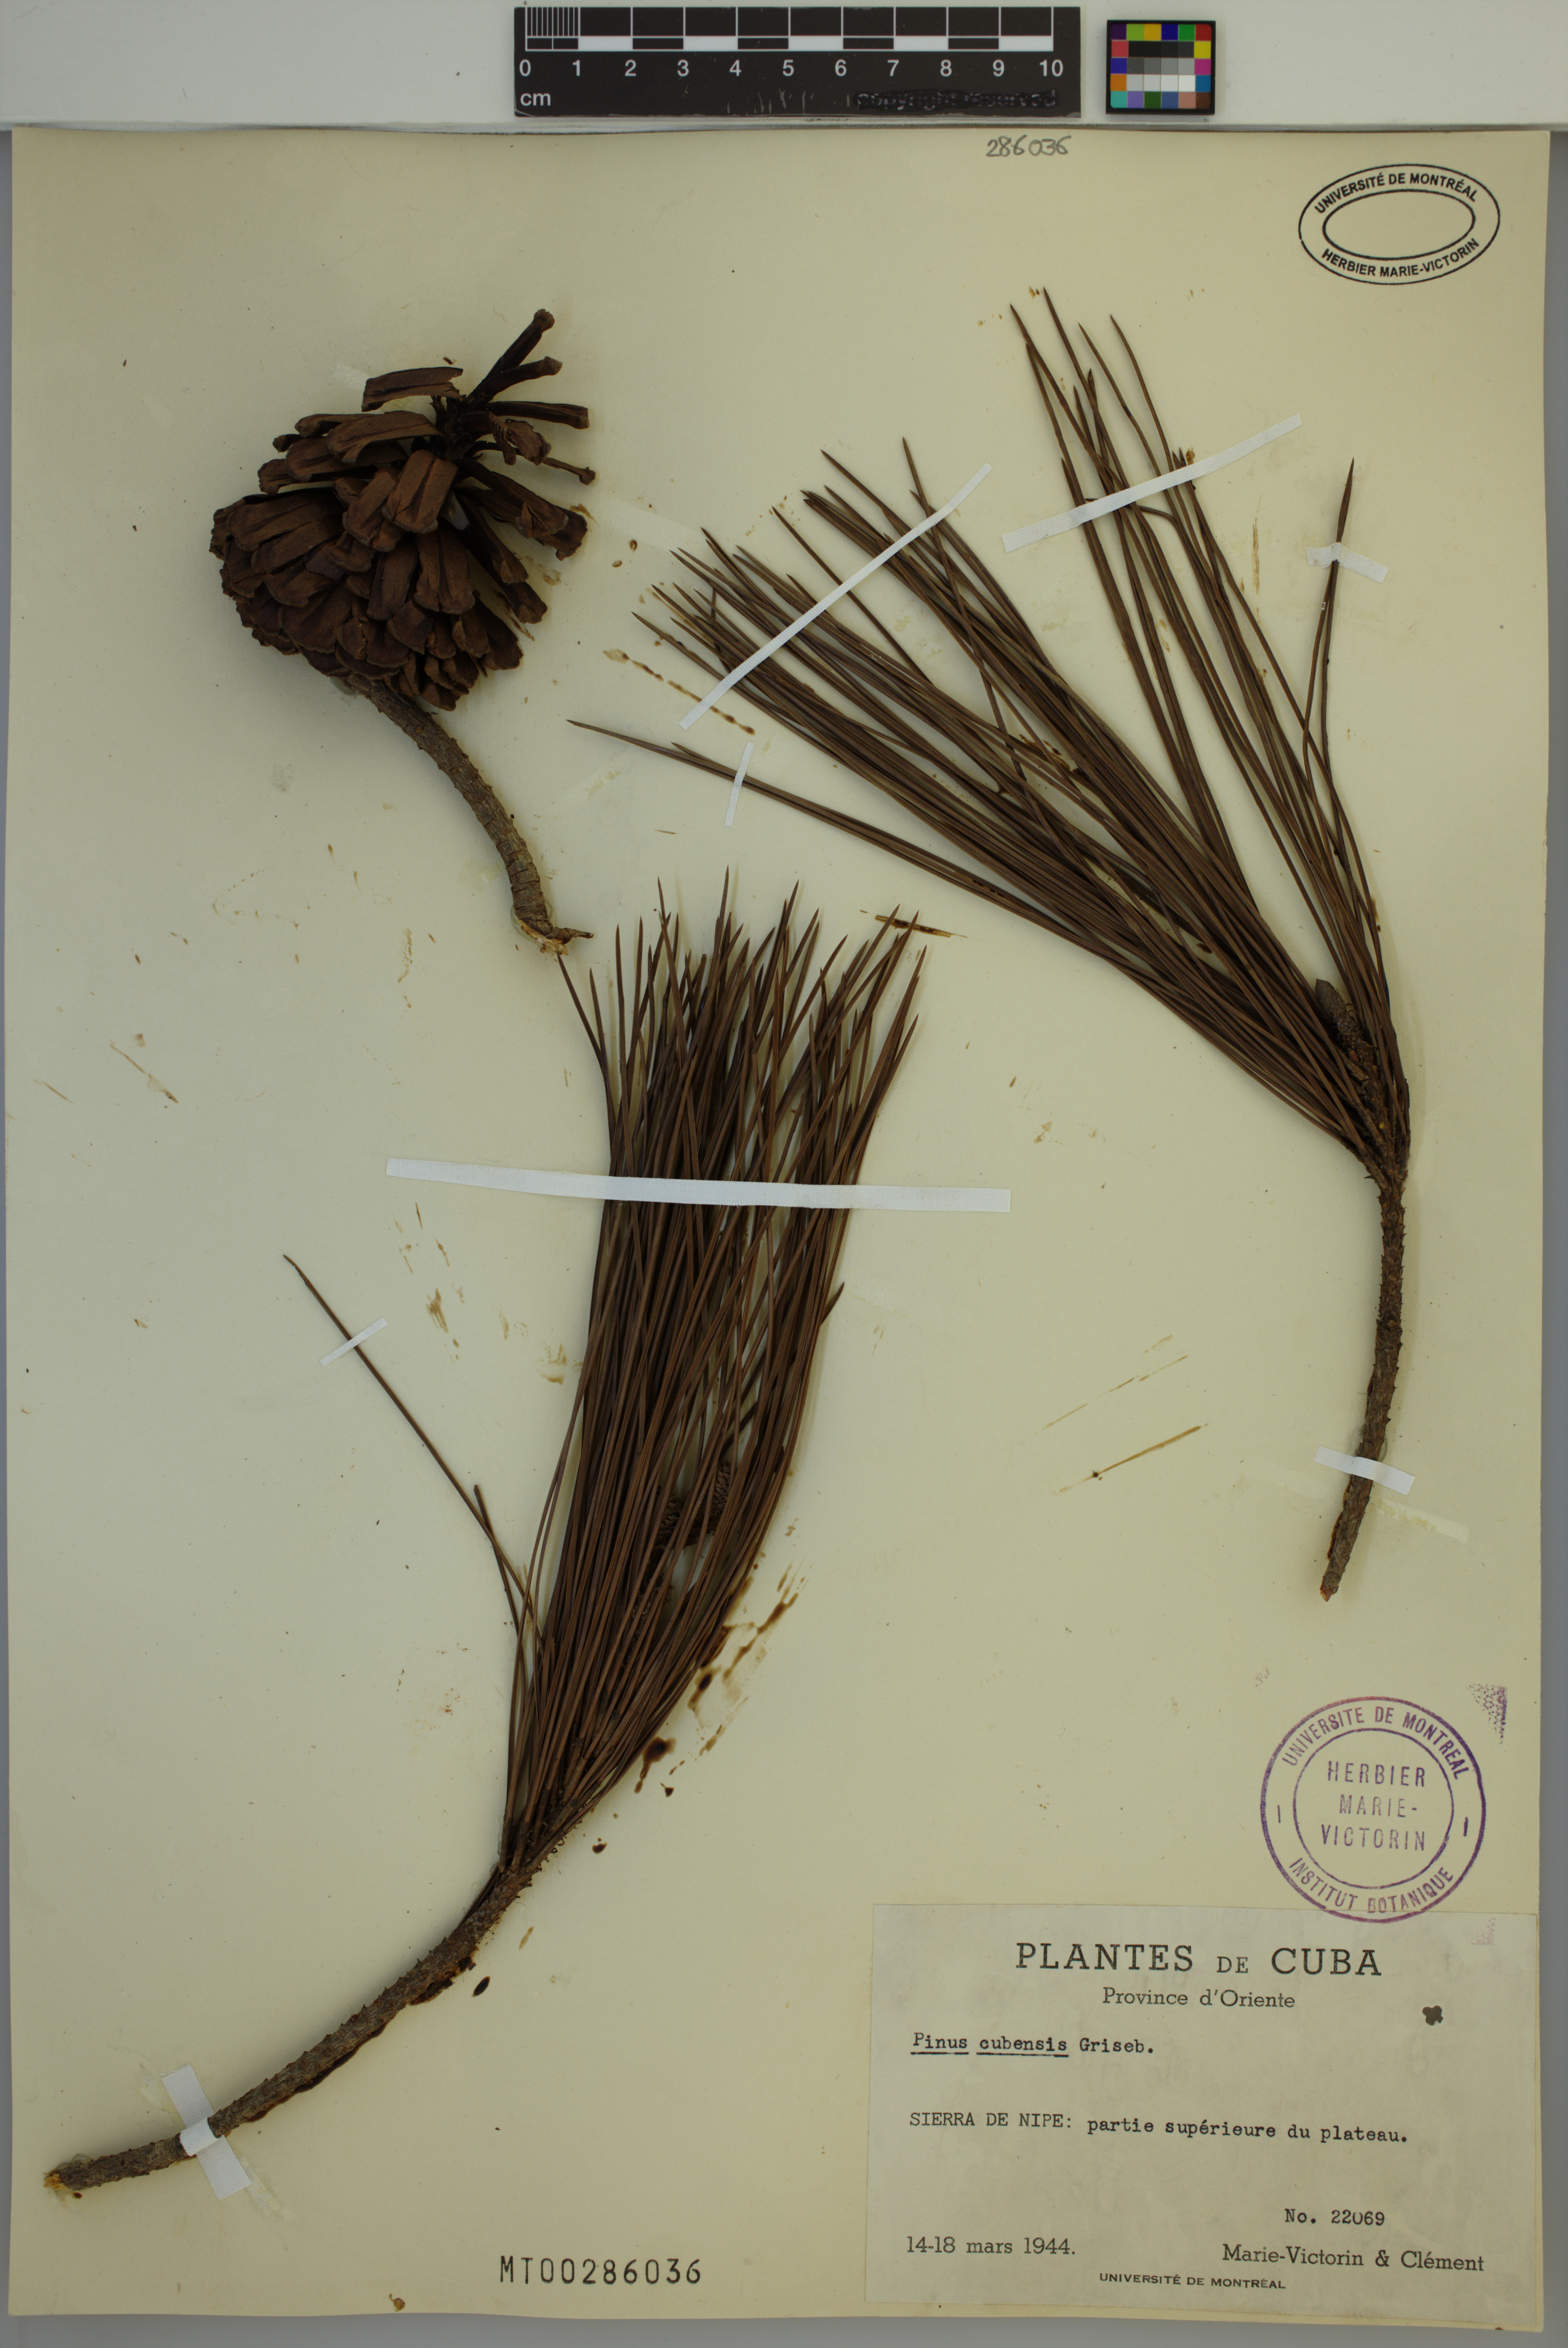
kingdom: Plantae
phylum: Tracheophyta
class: Pinopsida
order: Pinales
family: Pinaceae
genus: Pinus
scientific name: Pinus cubensis
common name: Cuban pine
